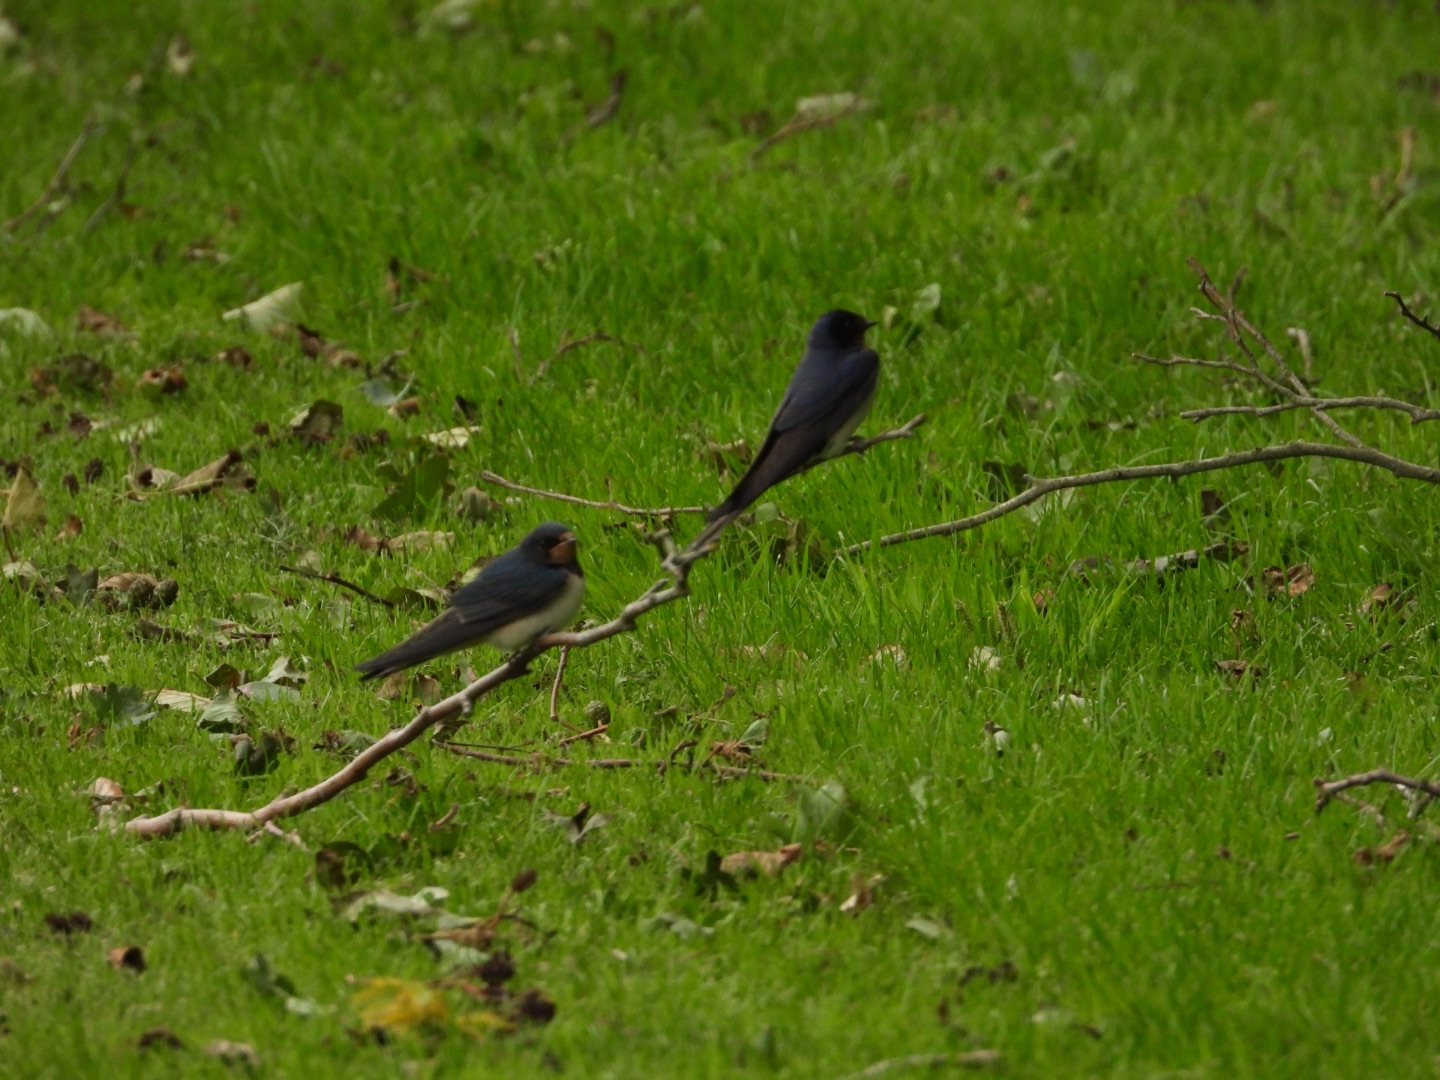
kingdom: Animalia
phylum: Chordata
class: Aves
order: Passeriformes
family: Hirundinidae
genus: Hirundo
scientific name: Hirundo rustica
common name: Landsvale
